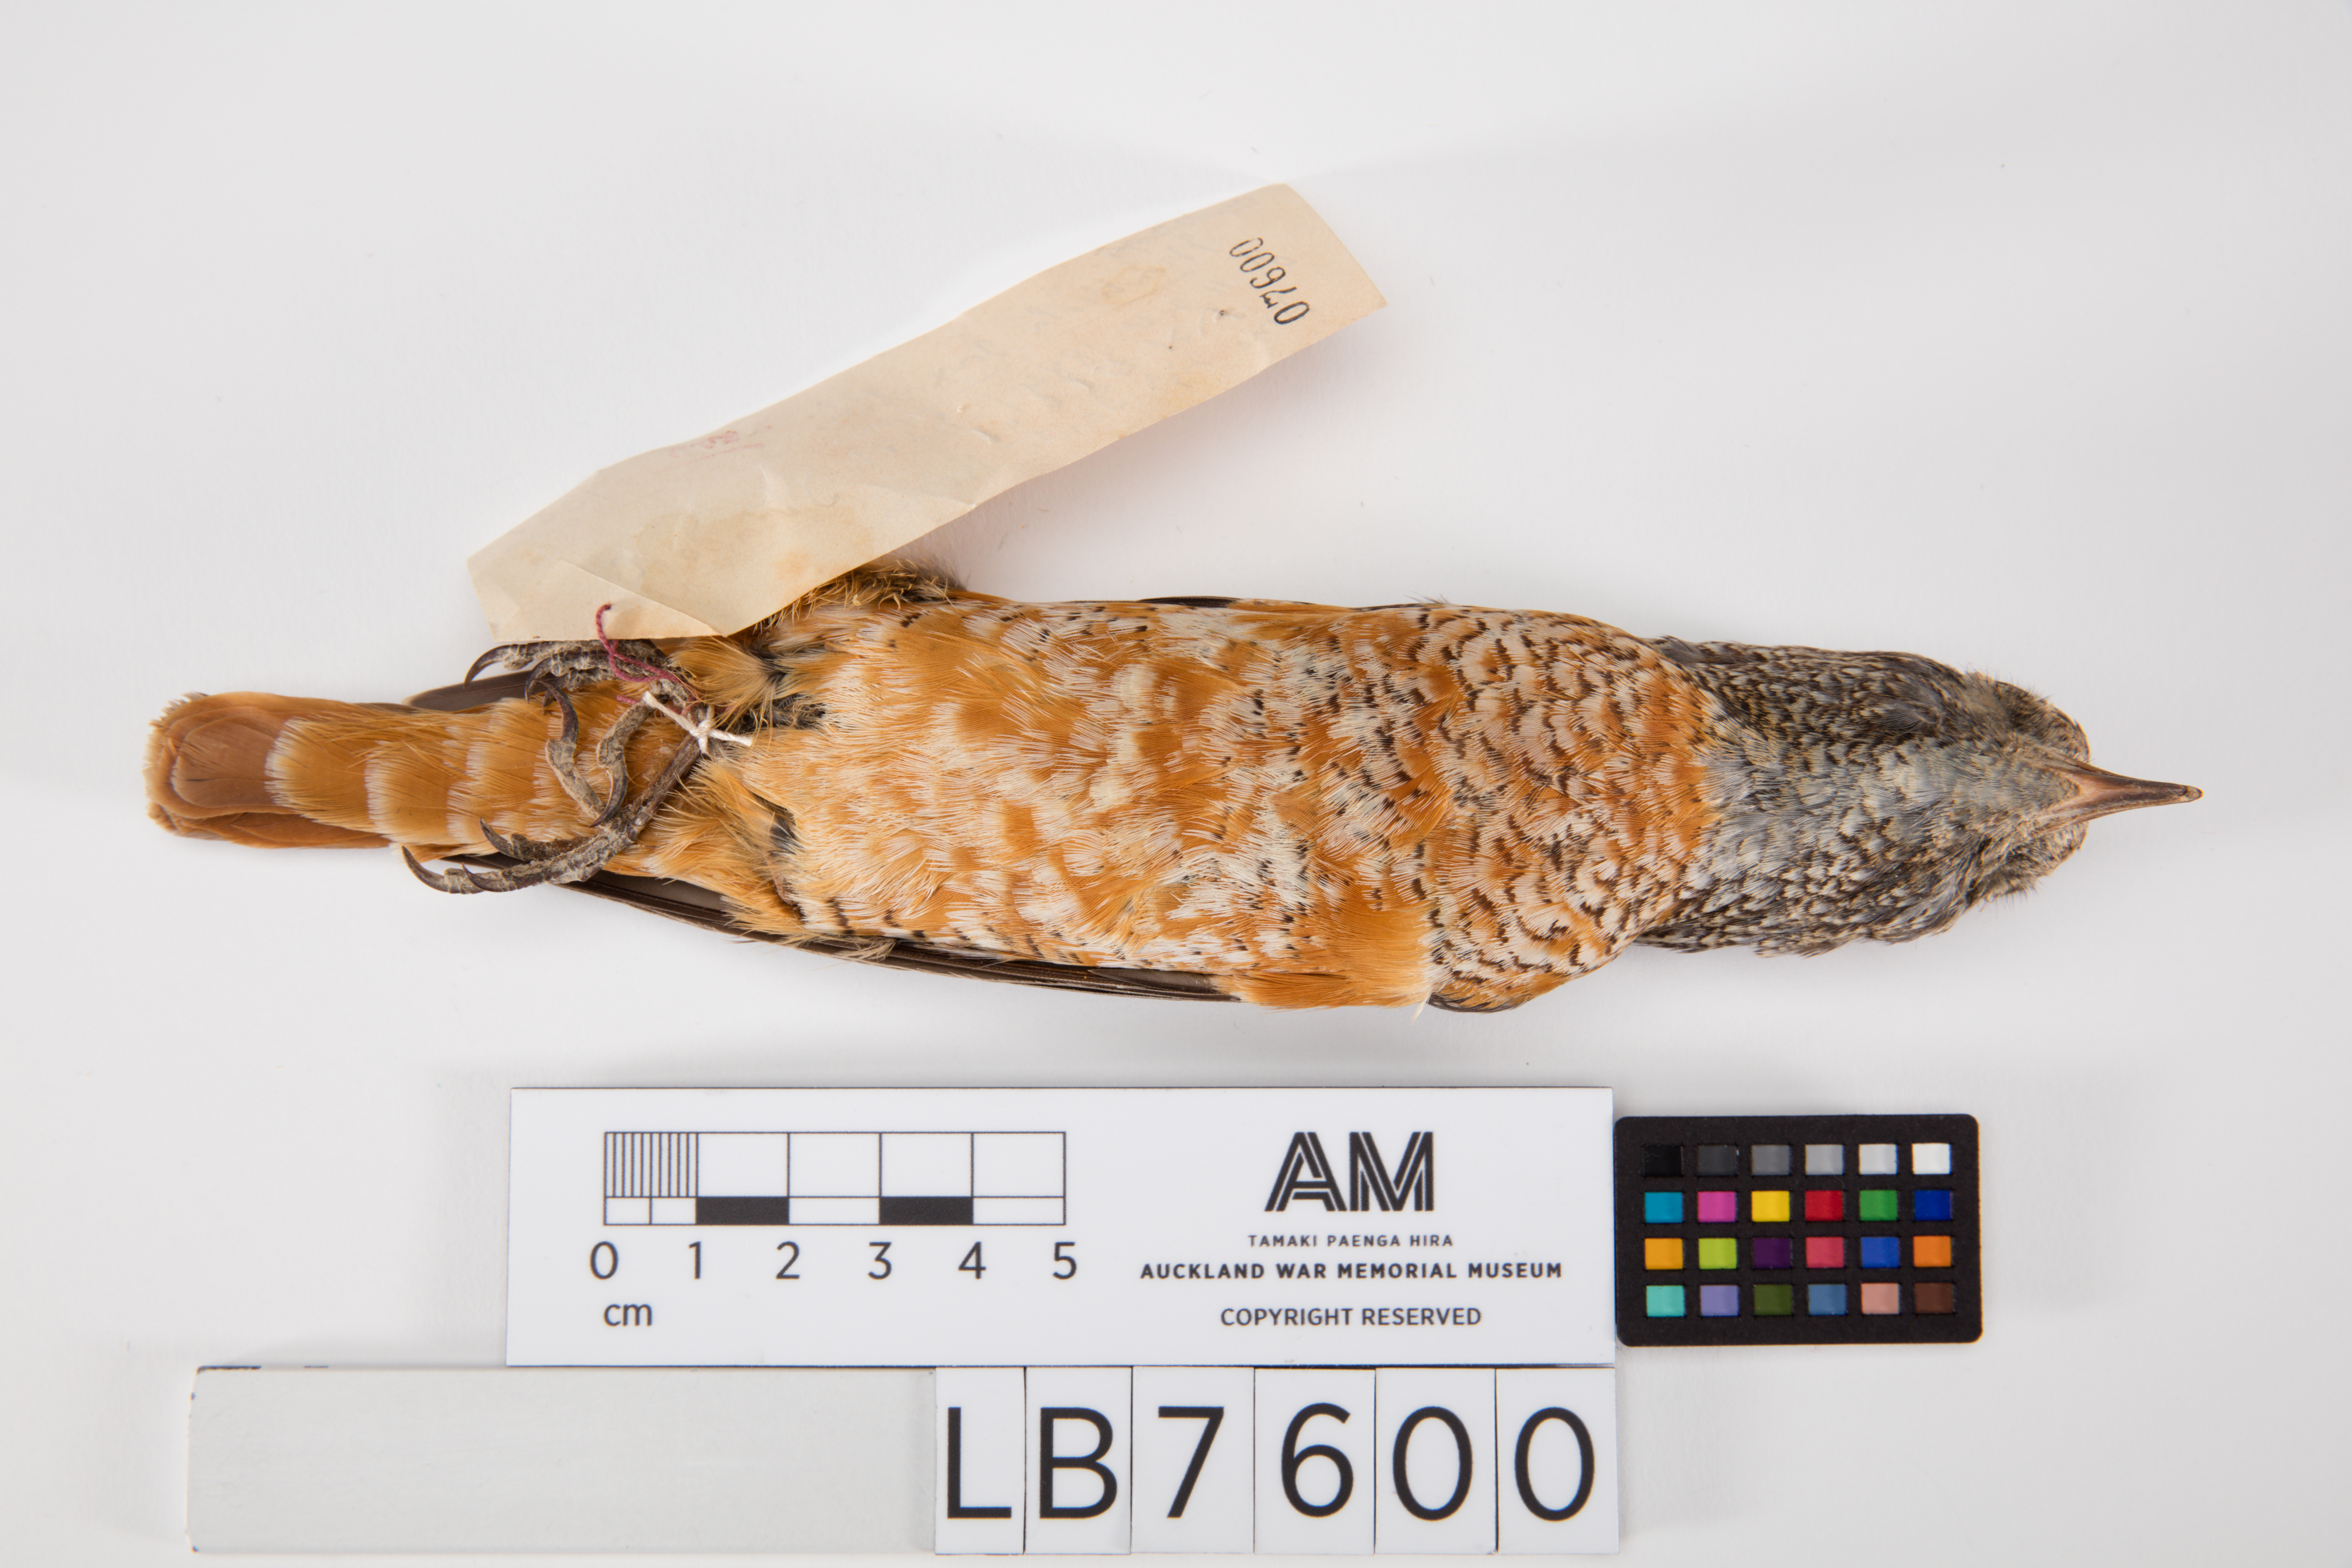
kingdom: Animalia
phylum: Chordata
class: Aves
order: Passeriformes
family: Muscicapidae
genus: Monticola
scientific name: Monticola saxatilis
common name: Rufous-tailed rock thrush
